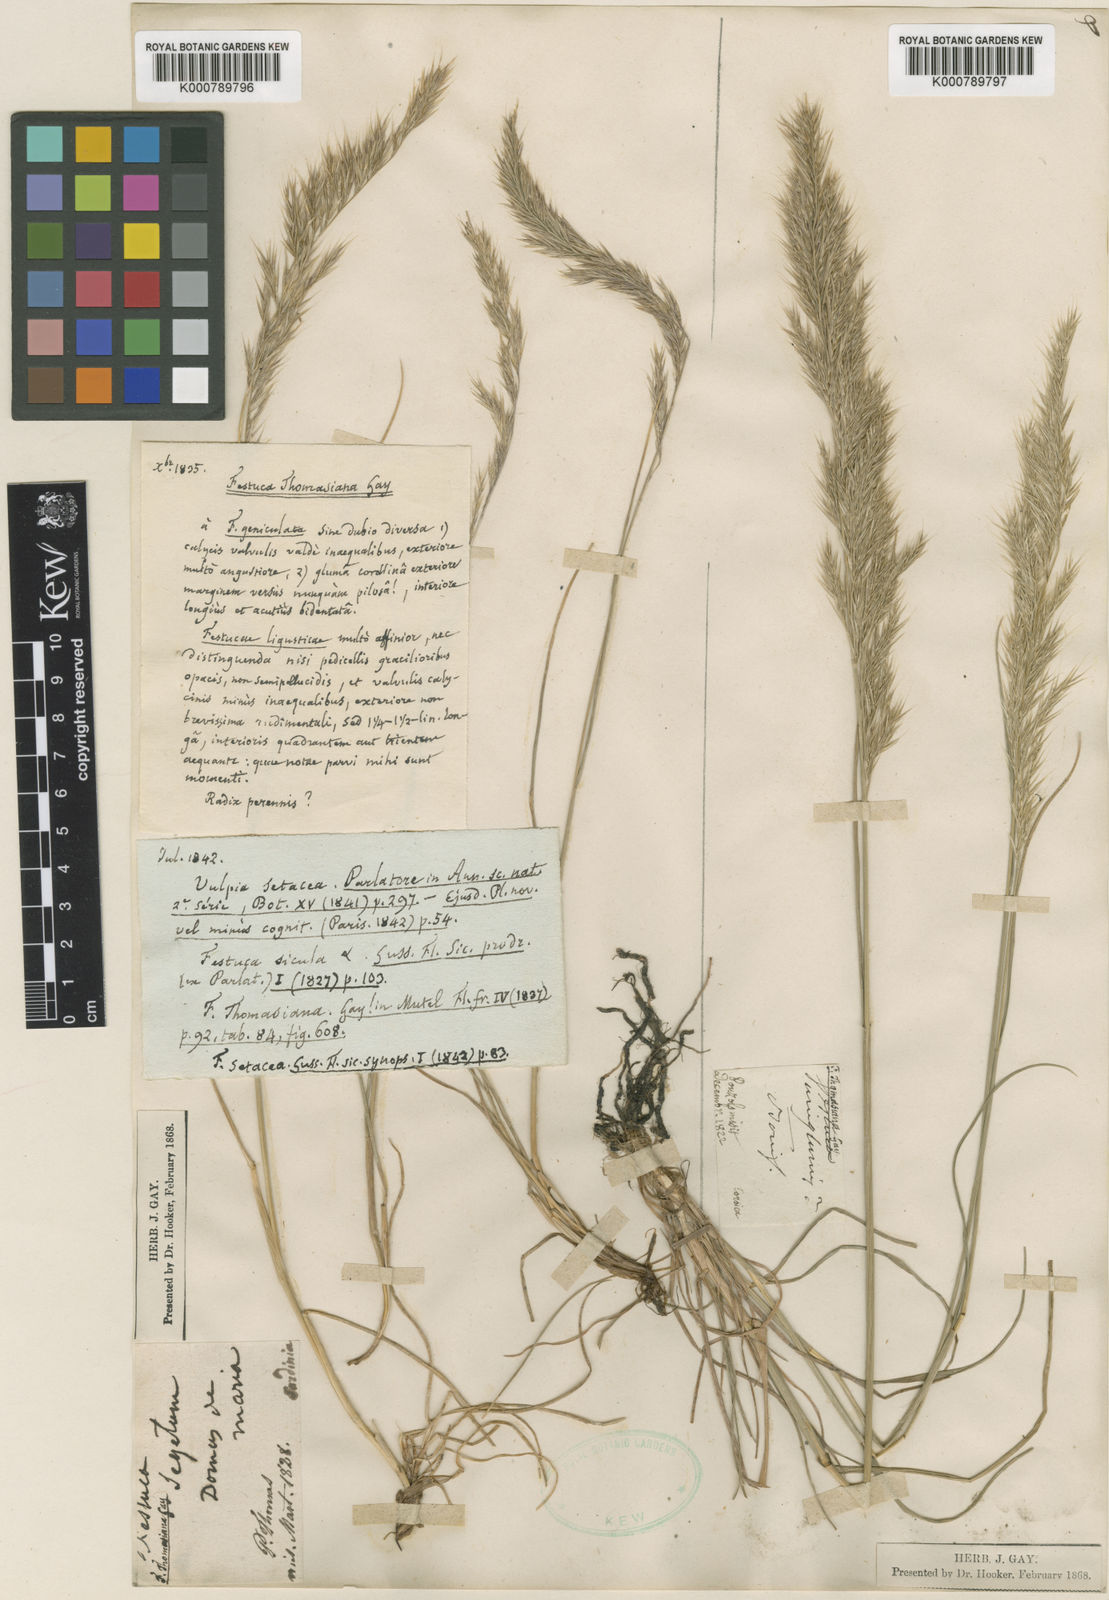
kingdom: Plantae
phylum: Tracheophyta
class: Liliopsida
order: Poales
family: Poaceae
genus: Festuca
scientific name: Festuca sicula
